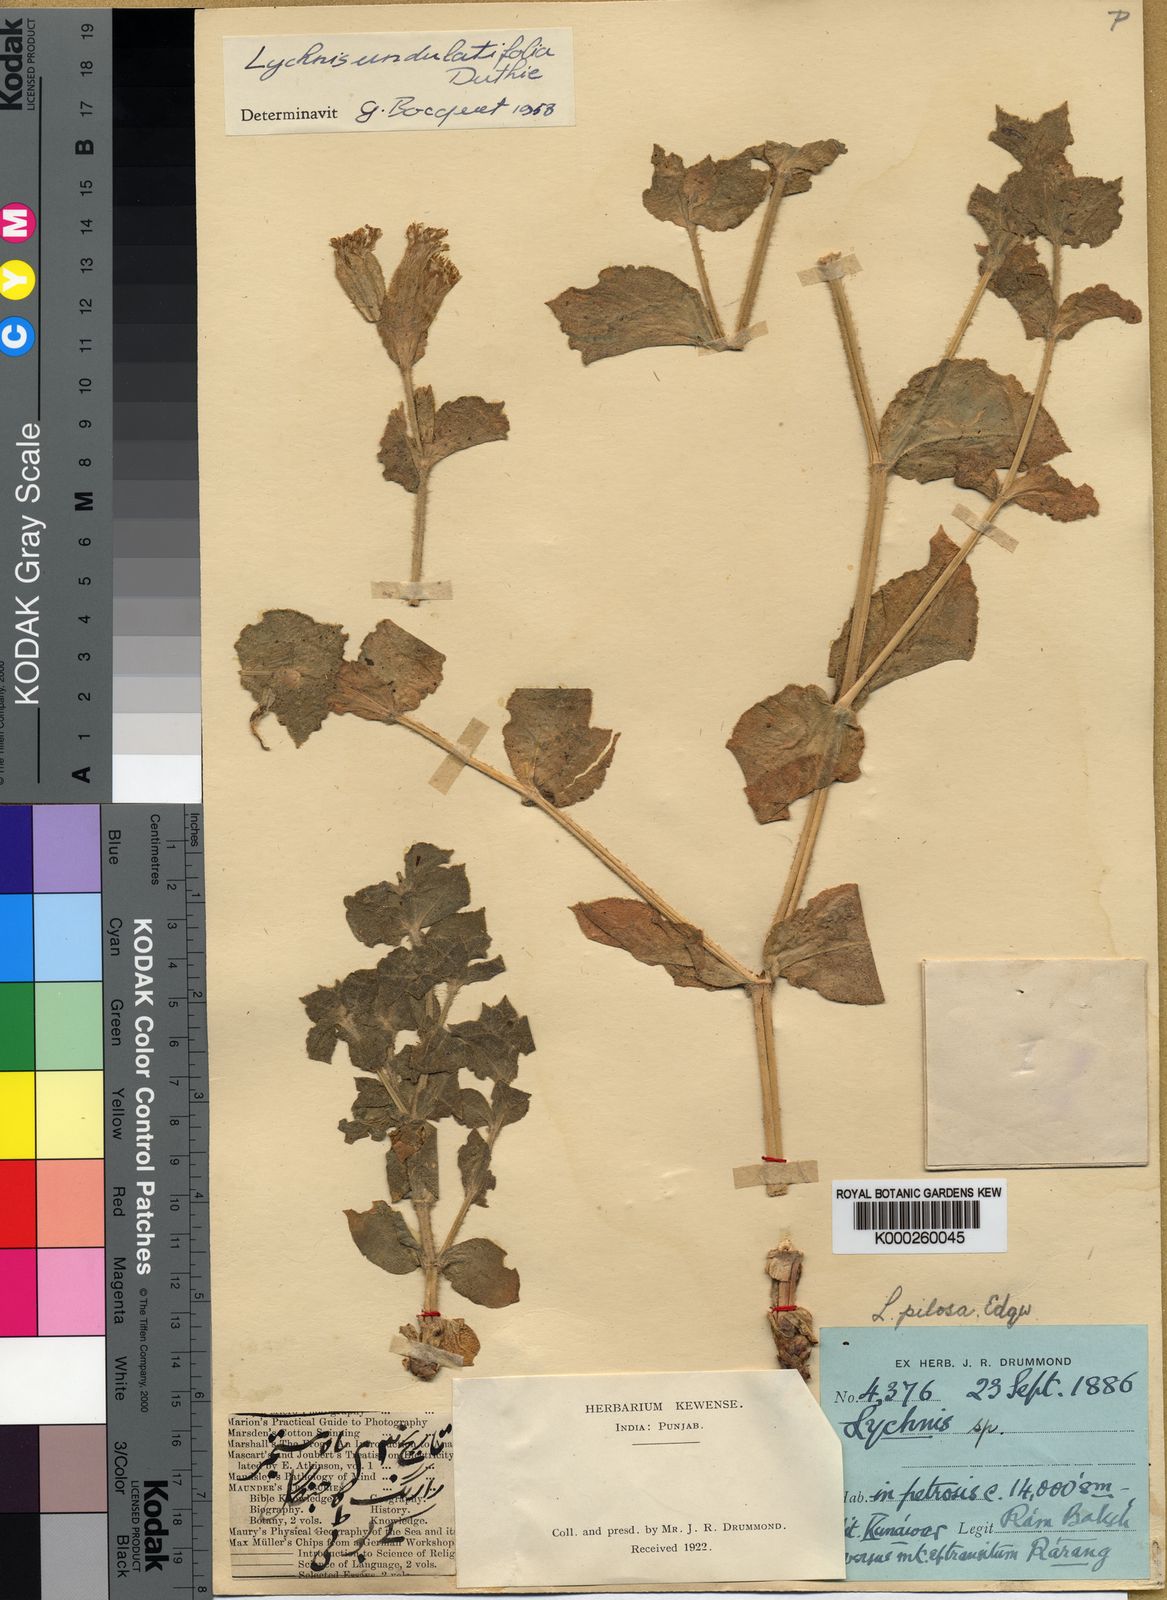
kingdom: Plantae
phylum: Tracheophyta
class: Magnoliopsida
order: Caryophyllales
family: Caryophyllaceae
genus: Silene
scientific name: Silene gangotriana
